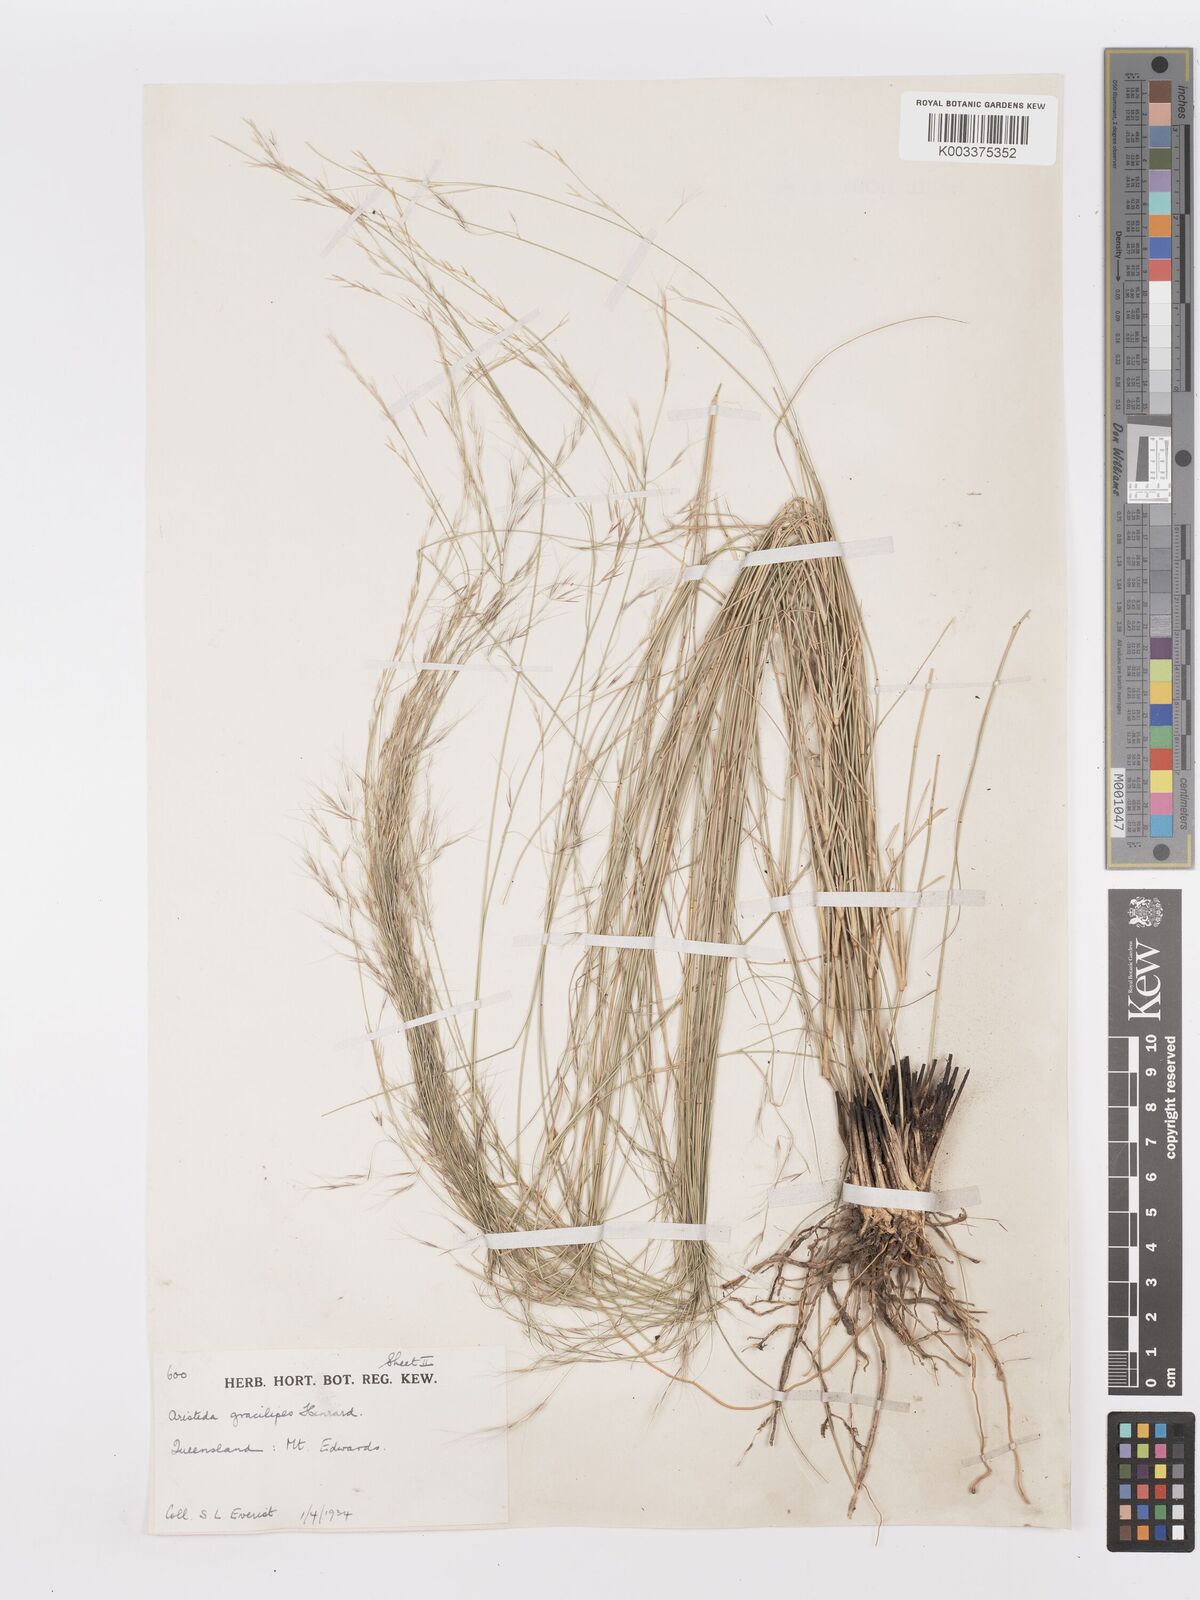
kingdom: Plantae
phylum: Tracheophyta
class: Liliopsida
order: Poales
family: Poaceae
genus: Aristida
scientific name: Aristida gracilipes
